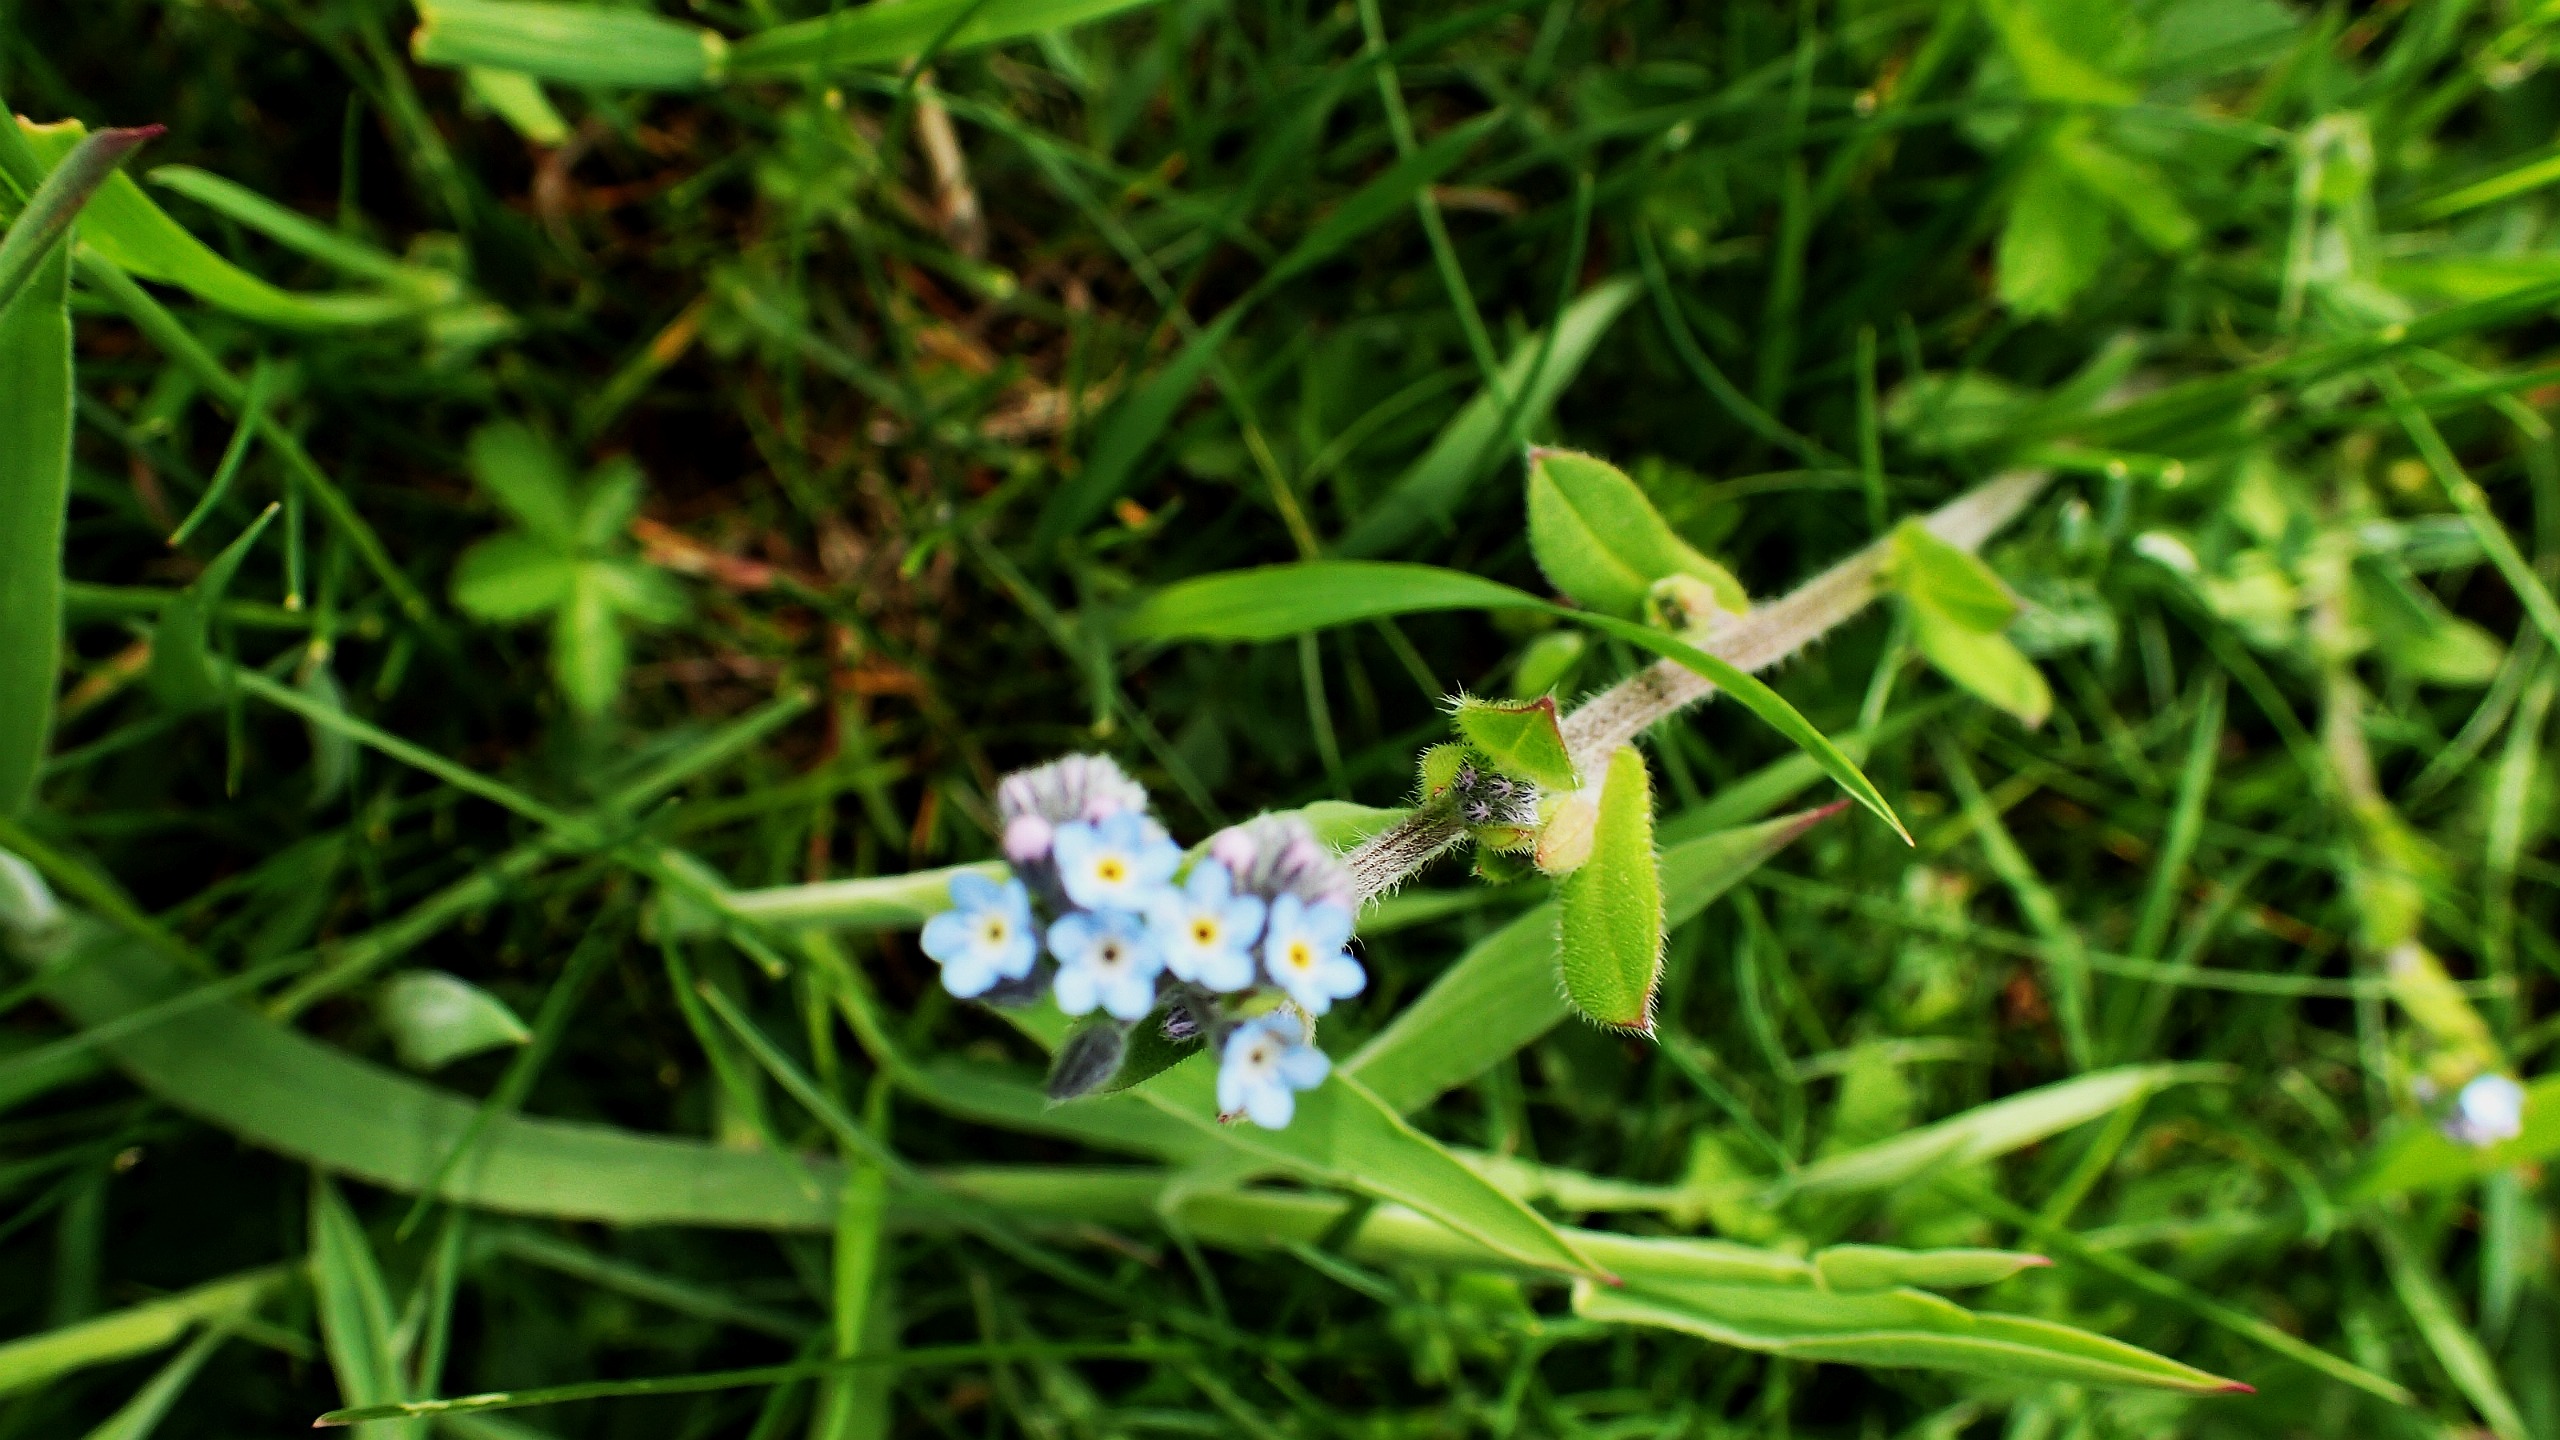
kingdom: Plantae
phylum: Tracheophyta
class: Magnoliopsida
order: Boraginales
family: Boraginaceae
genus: Myosotis
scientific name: Myosotis arvensis
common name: Mark-forglemmigej
